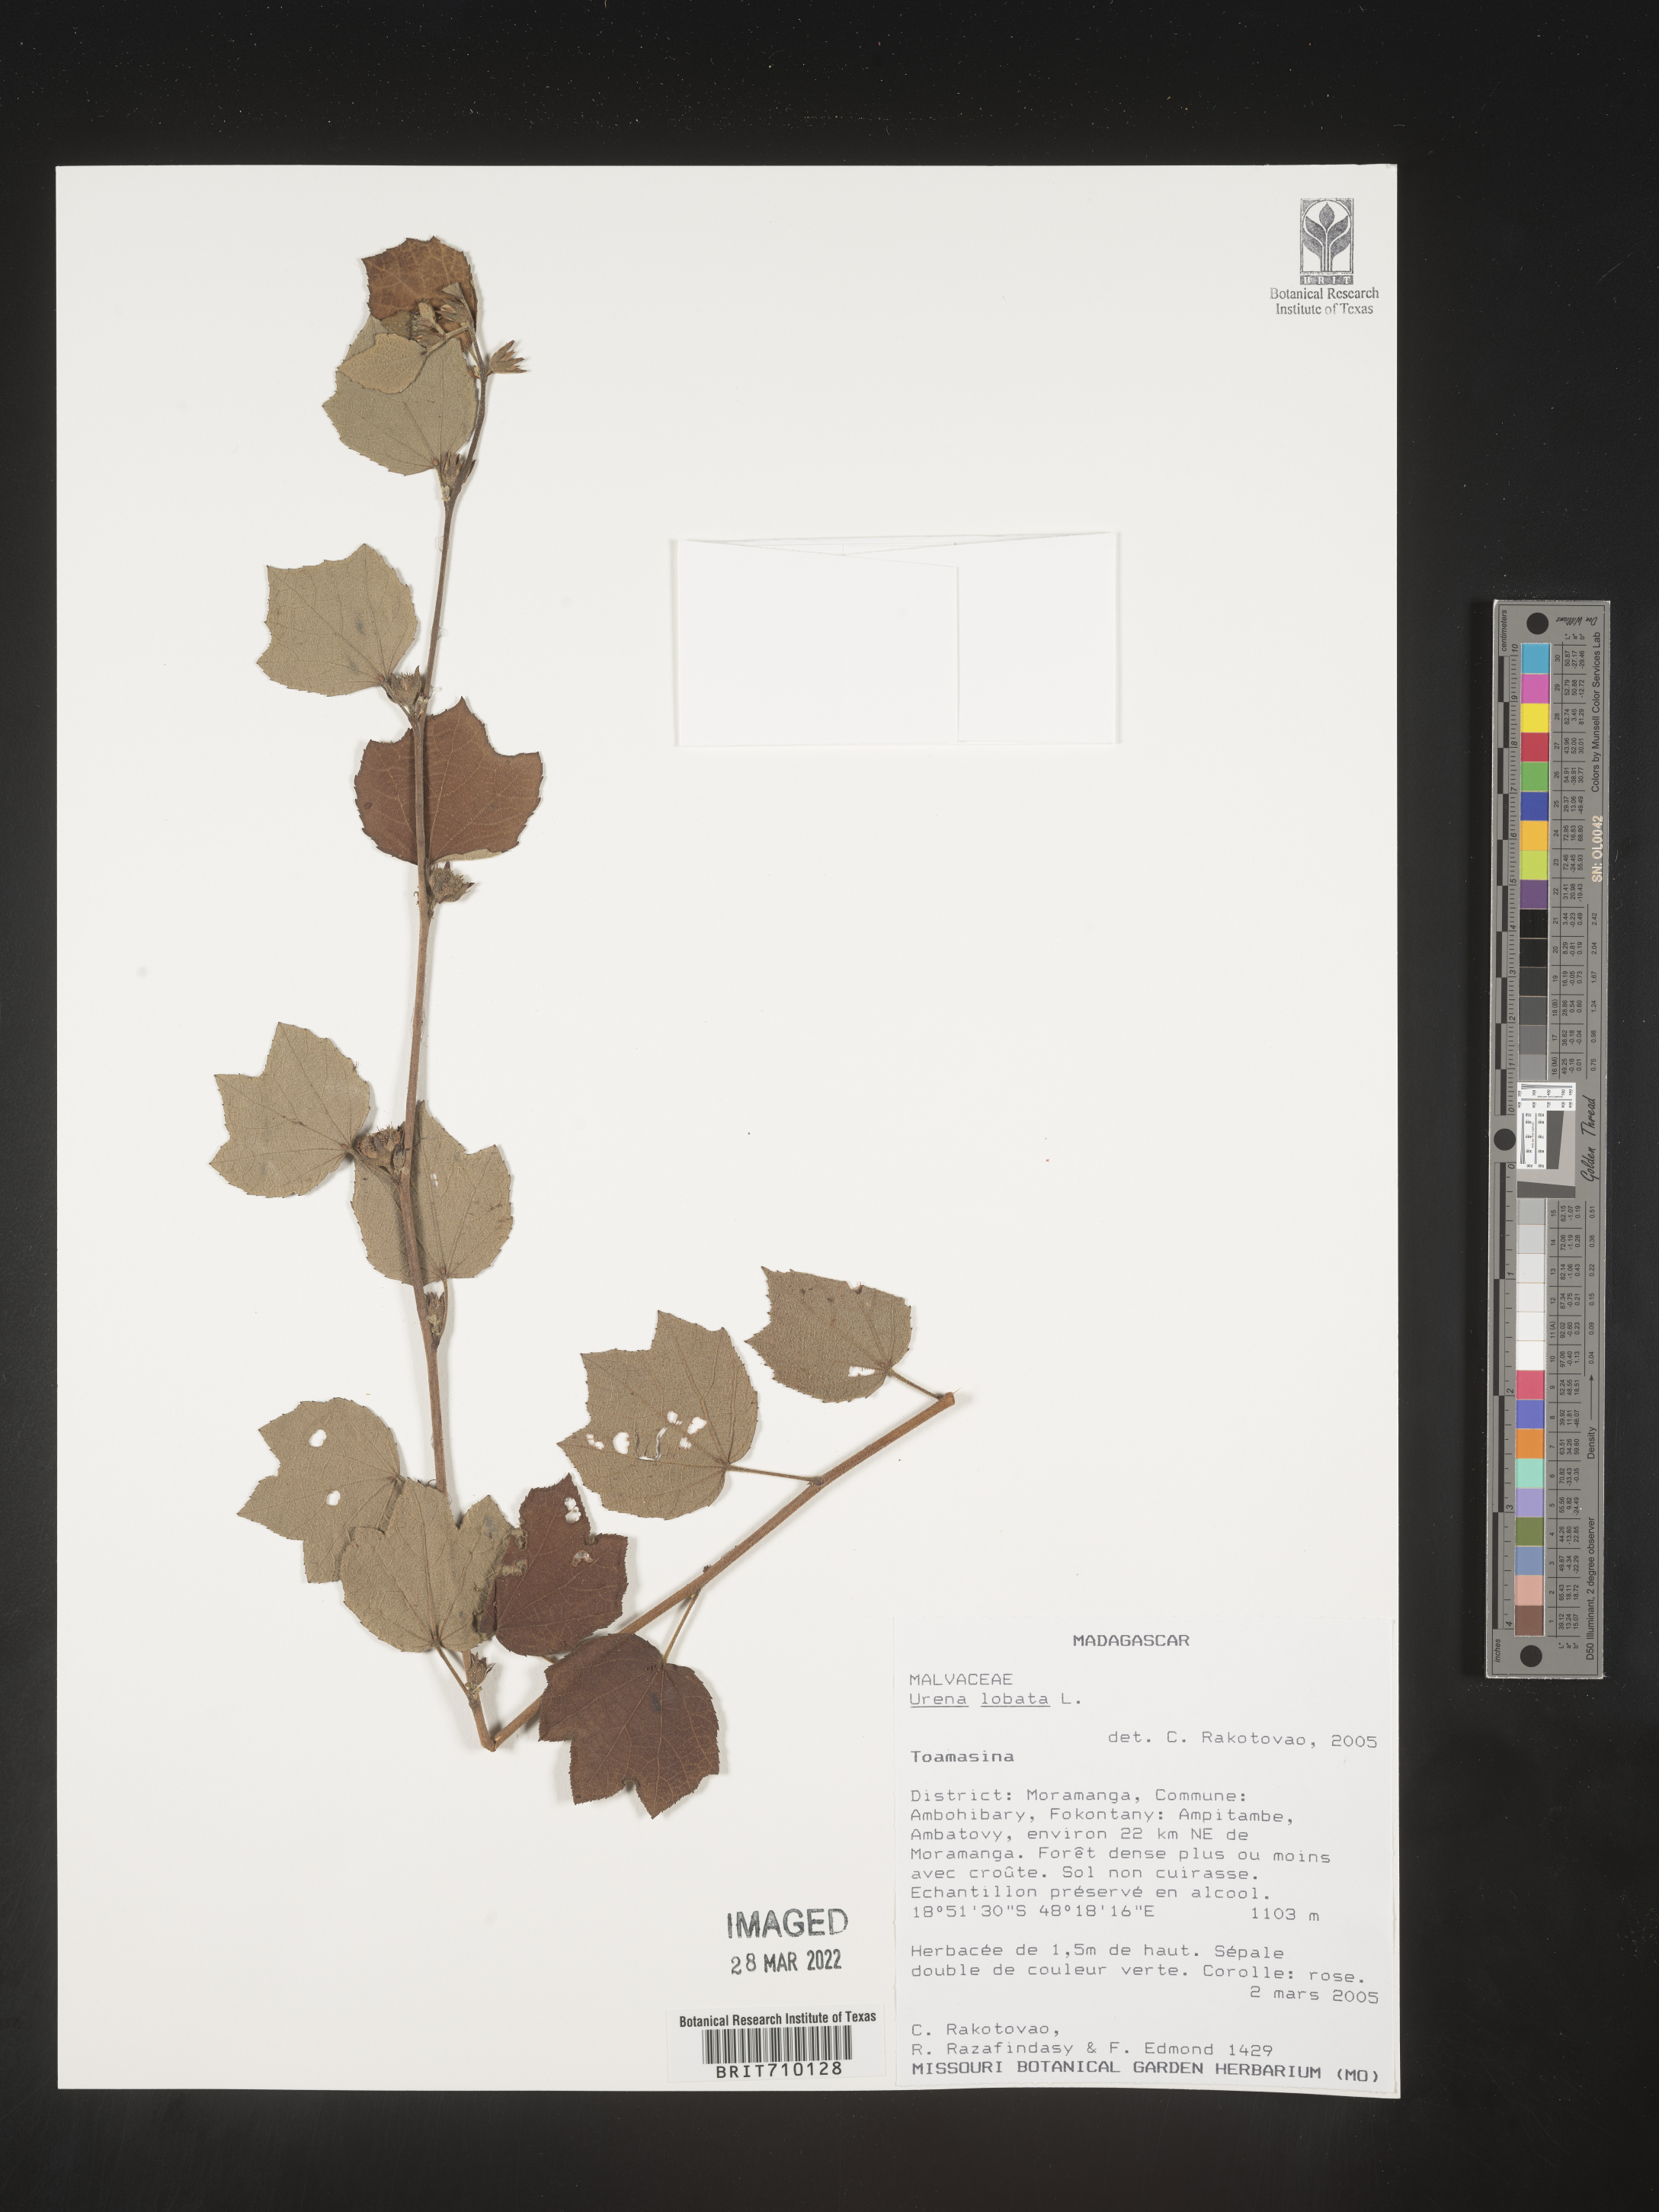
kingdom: Plantae
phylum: Tracheophyta
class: Magnoliopsida
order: Malvales
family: Malvaceae
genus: Urena
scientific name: Urena
